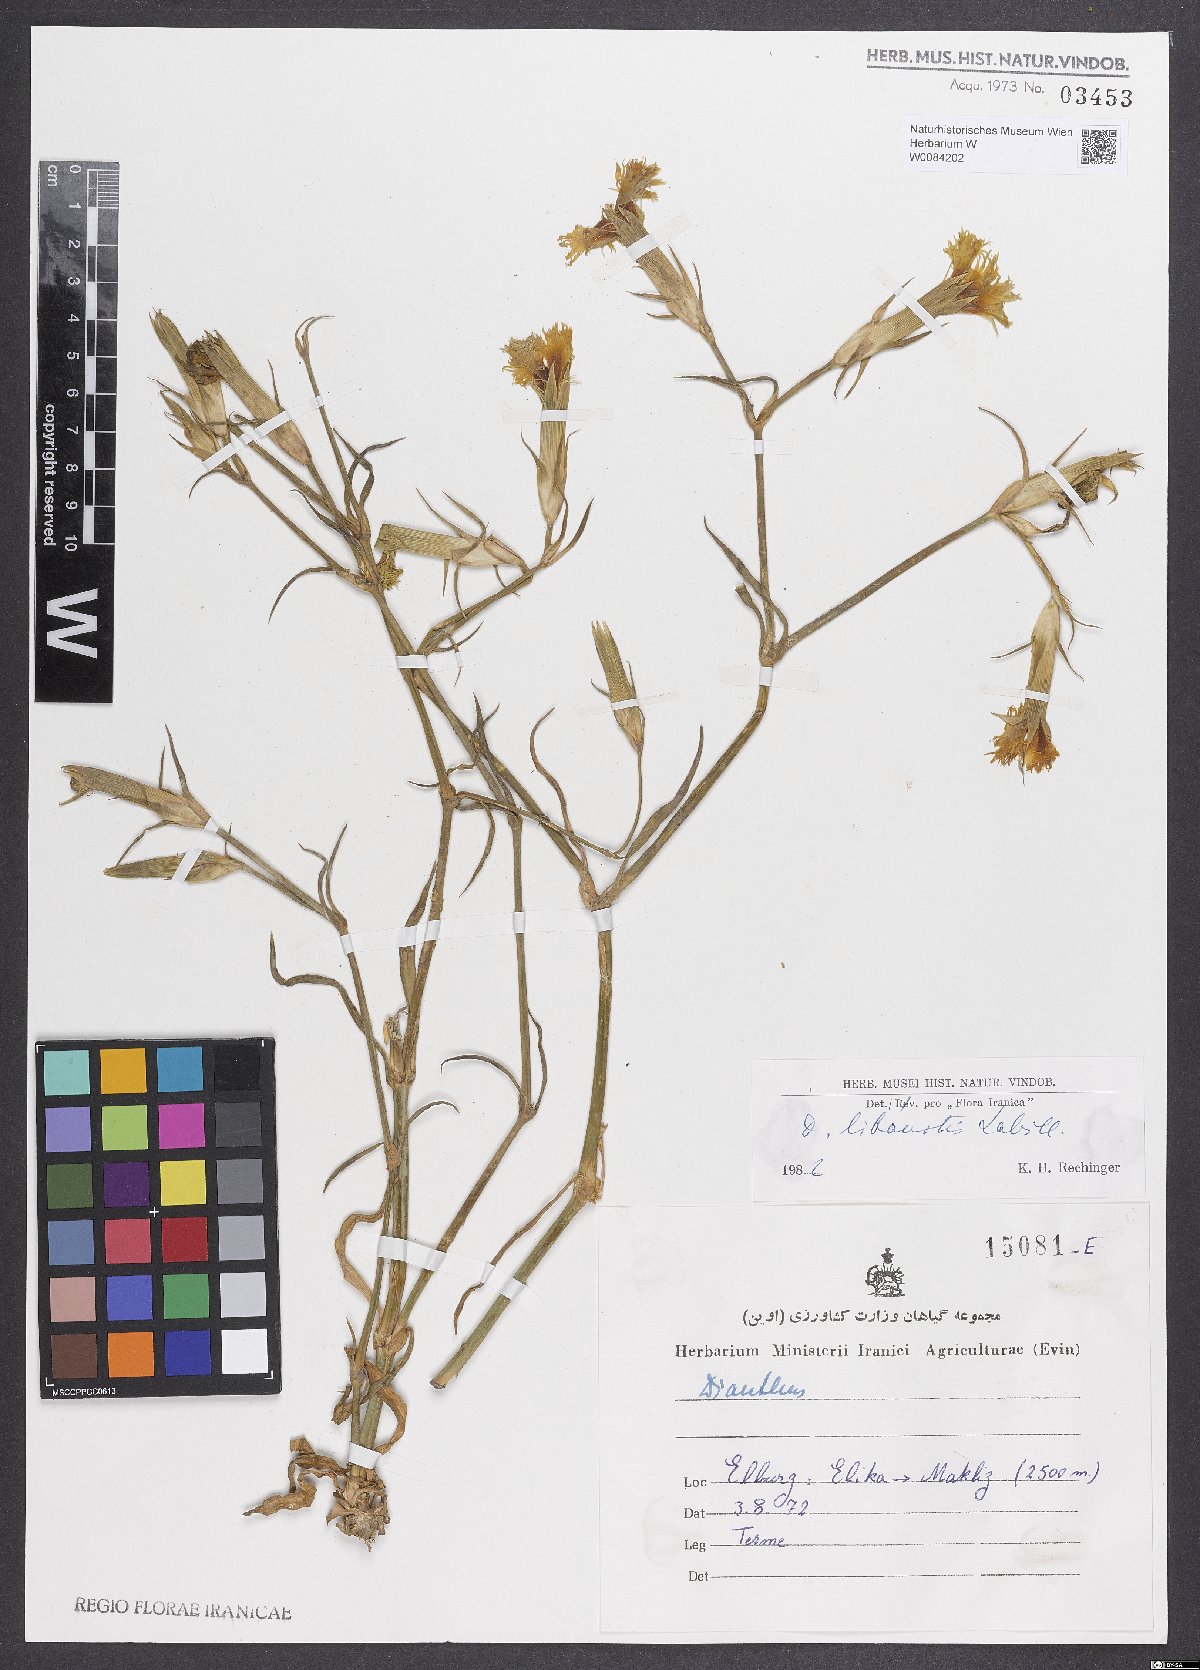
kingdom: Plantae
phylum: Tracheophyta
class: Magnoliopsida
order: Caryophyllales
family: Caryophyllaceae
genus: Dianthus
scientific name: Dianthus libanotis
